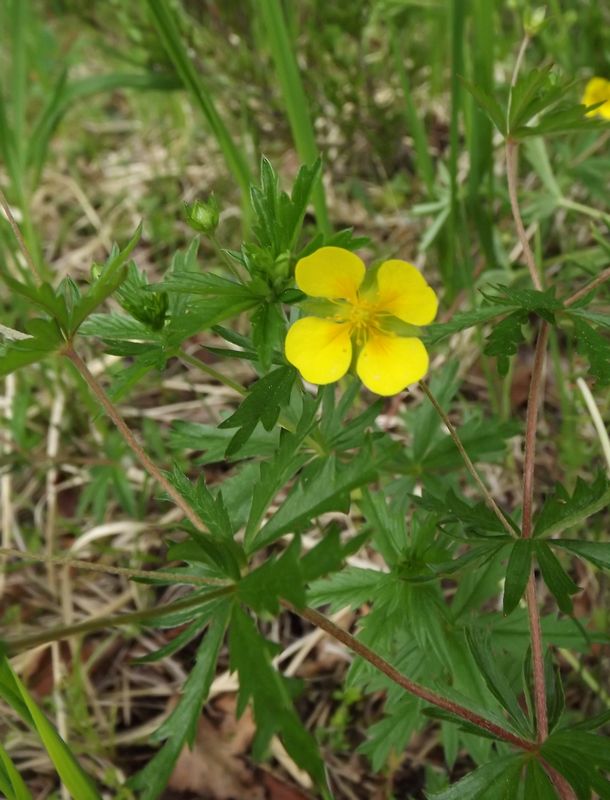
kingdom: Plantae
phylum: Tracheophyta
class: Magnoliopsida
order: Rosales
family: Rosaceae
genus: Potentilla
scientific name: Potentilla erecta
